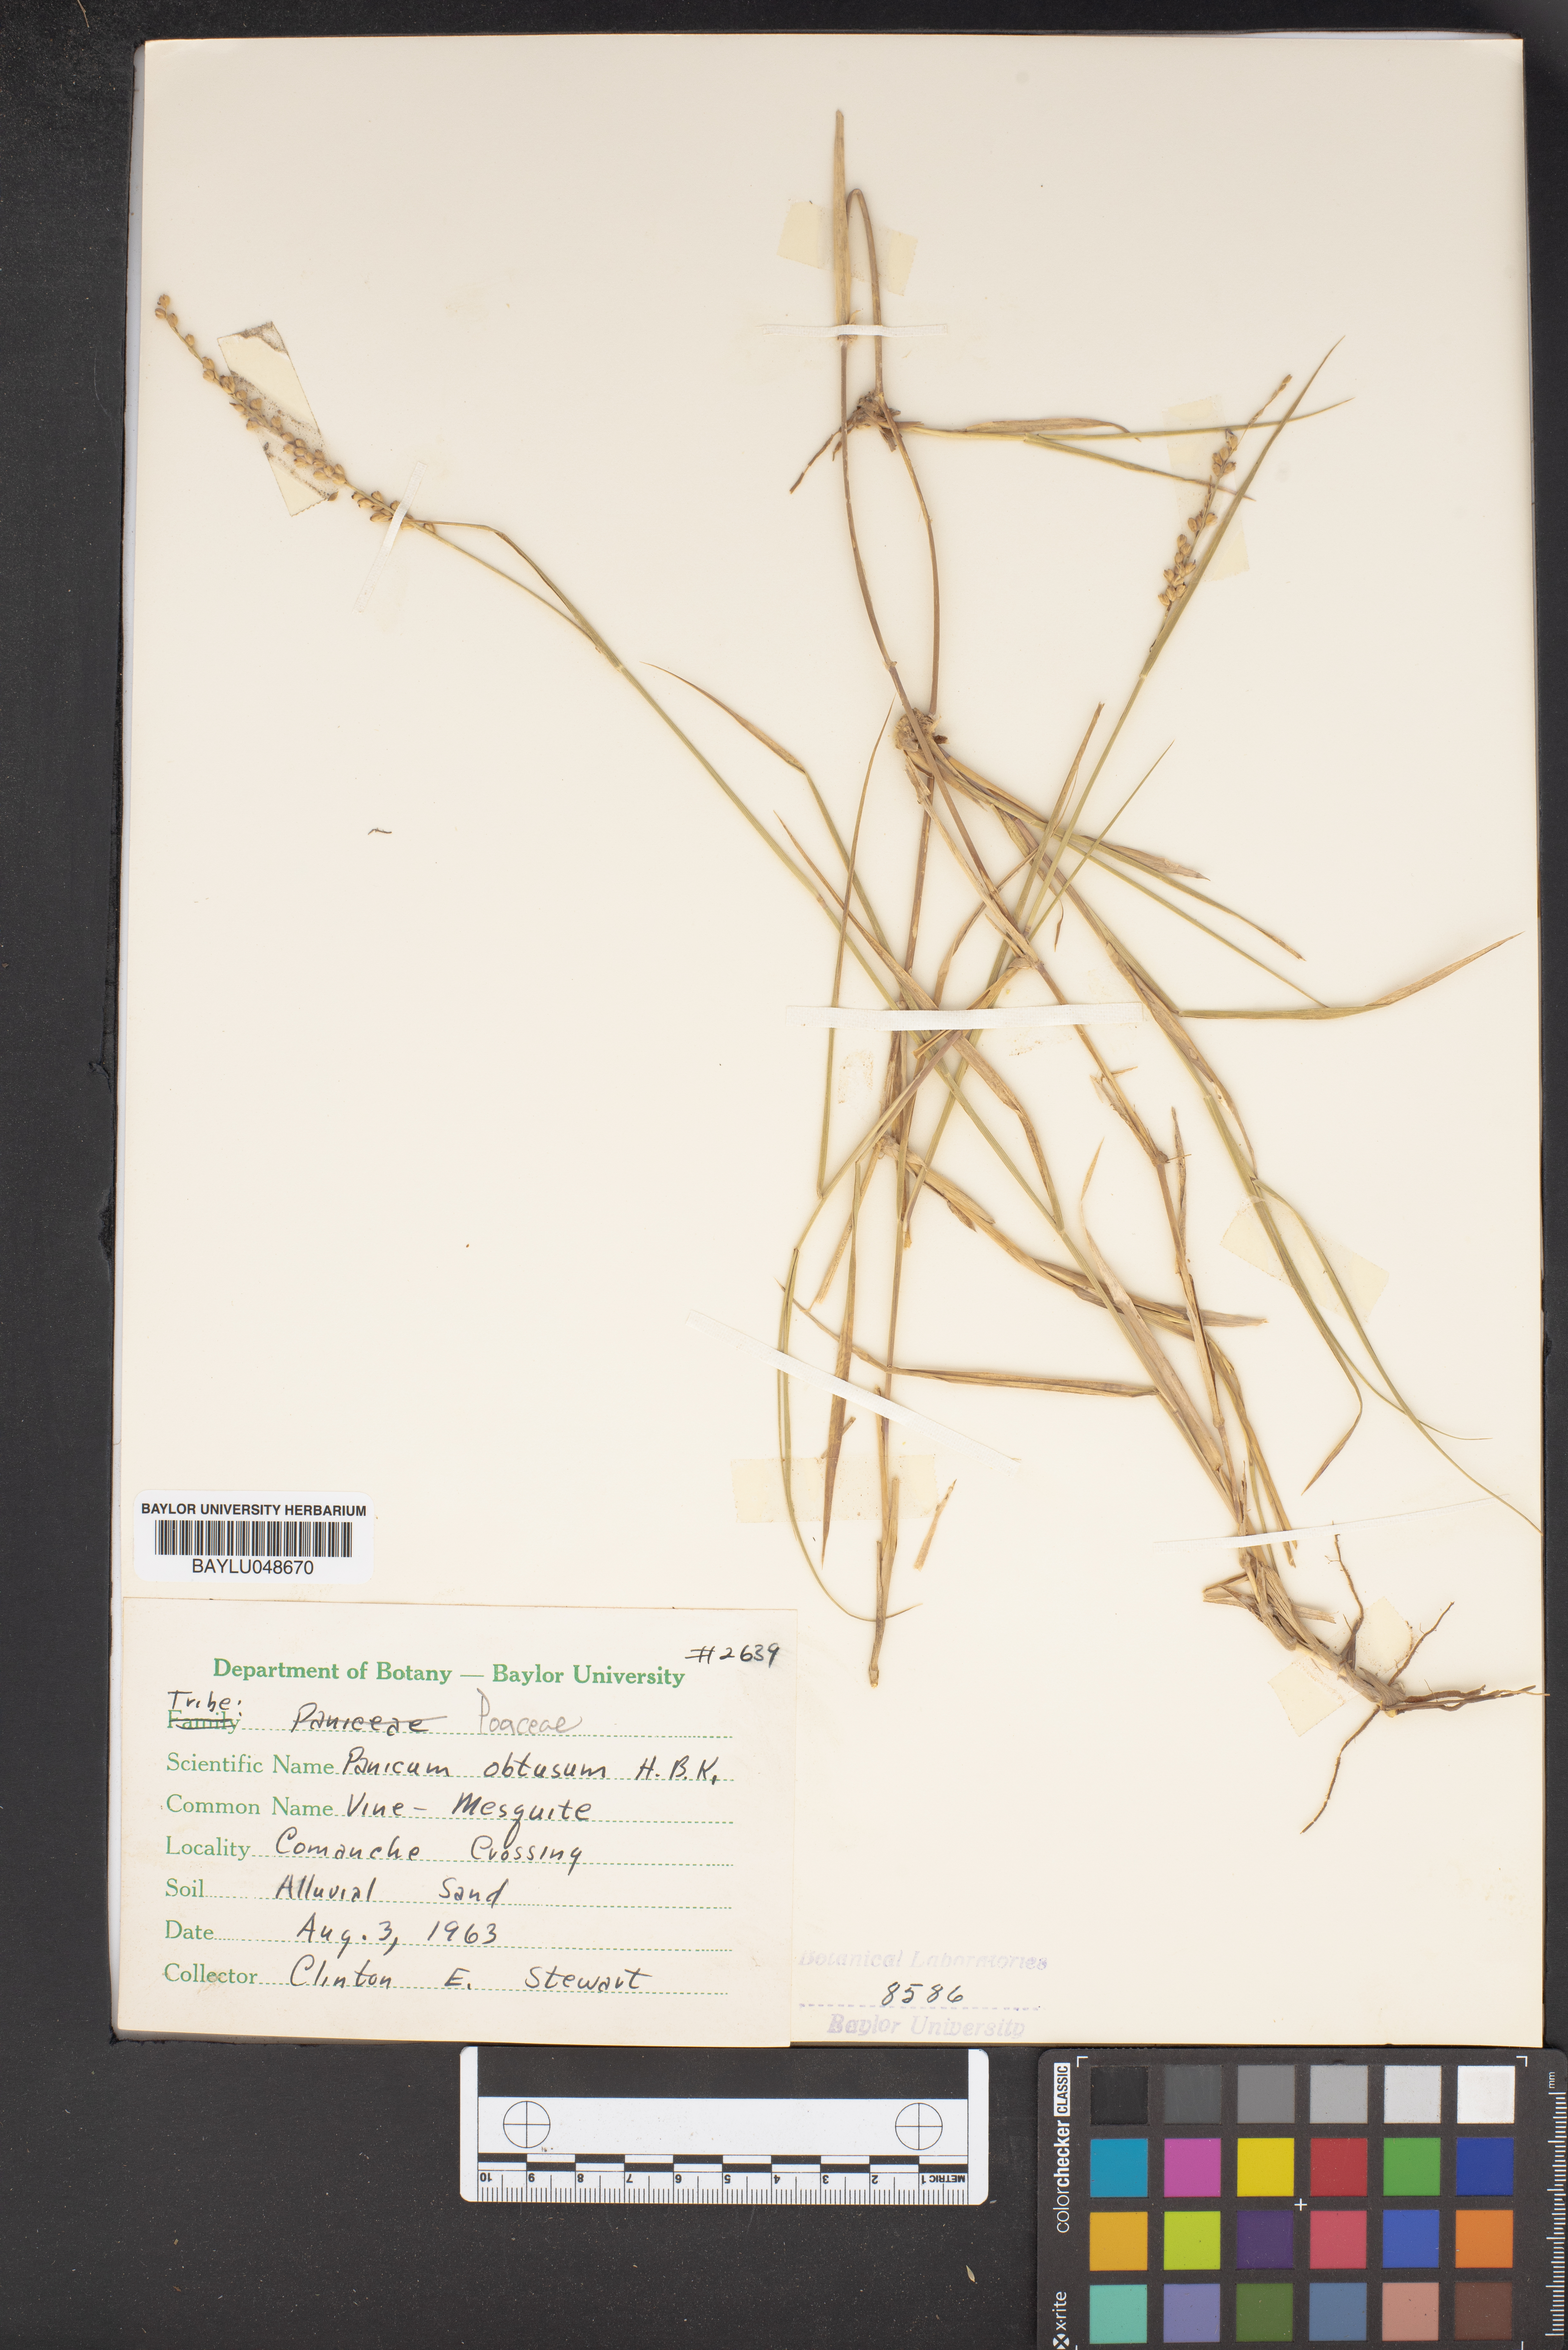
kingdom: Plantae
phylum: Tracheophyta
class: Liliopsida
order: Poales
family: Poaceae
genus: Hopia
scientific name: Hopia obtusa
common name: Vine-mesquite
